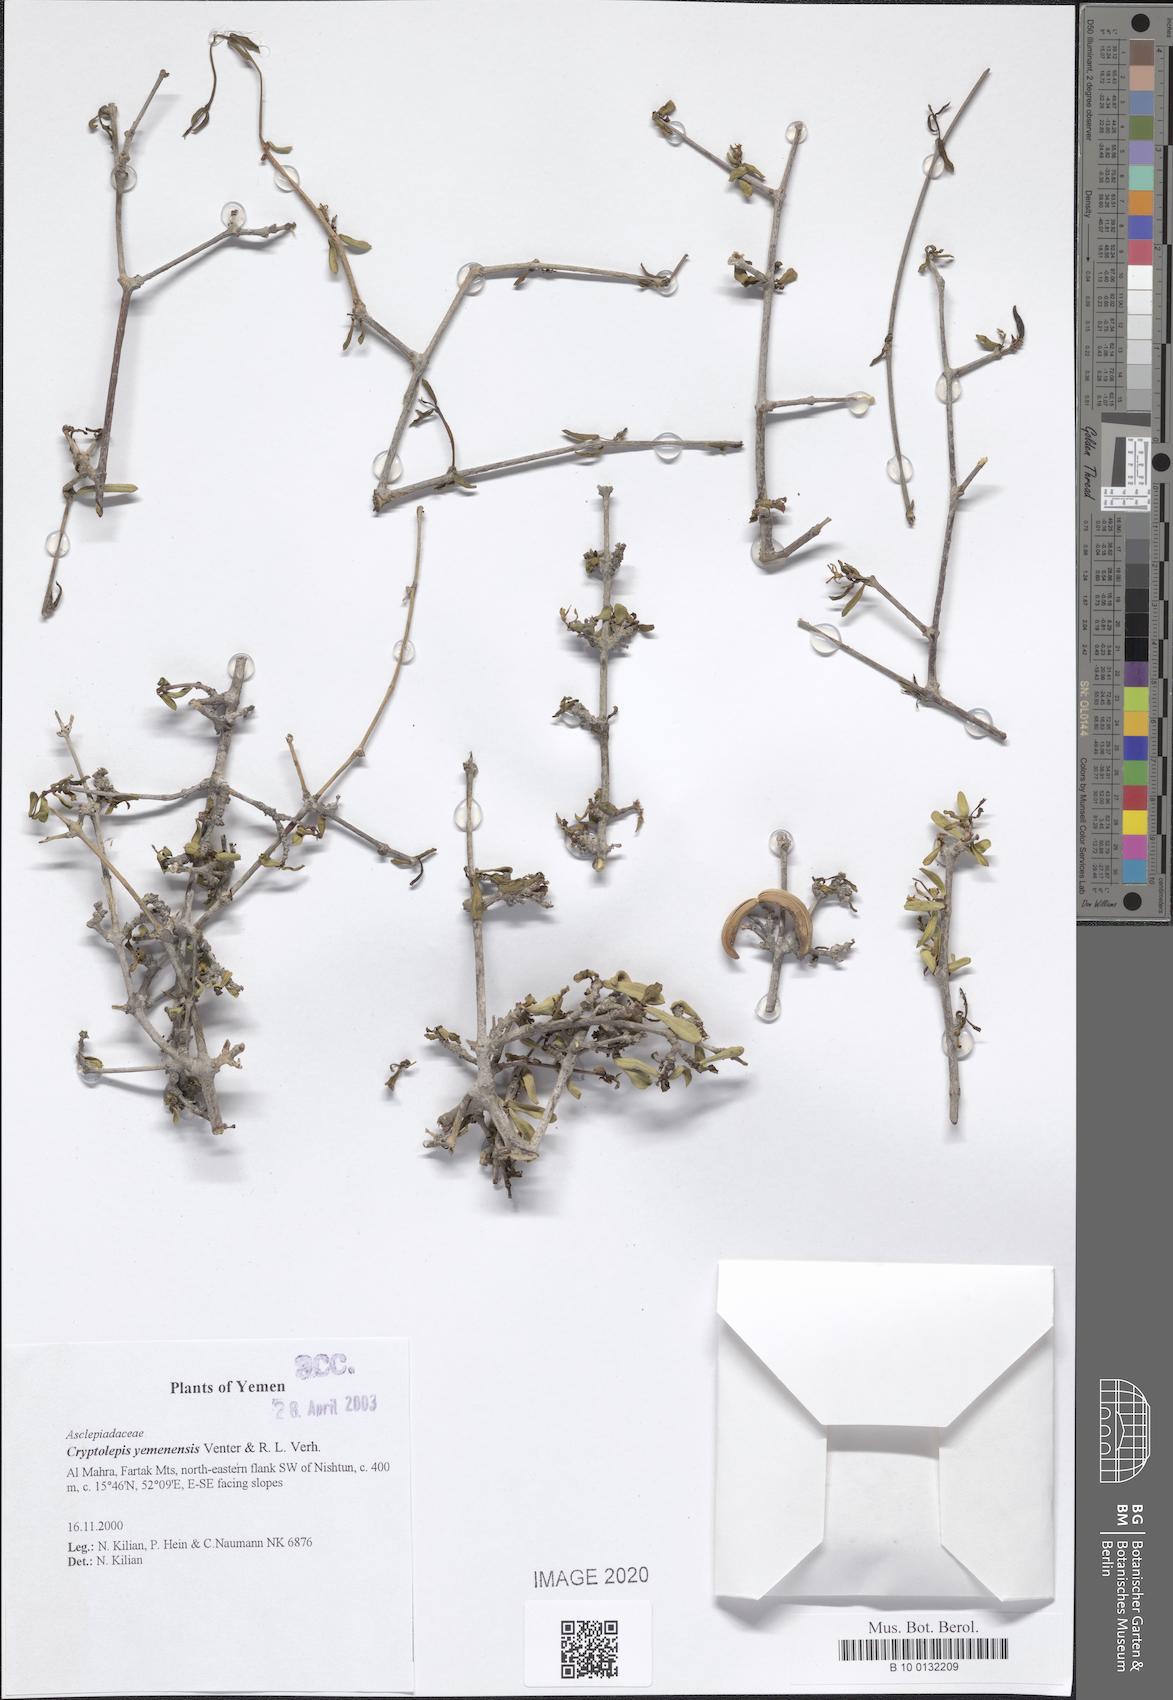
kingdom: Plantae
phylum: Tracheophyta
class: Magnoliopsida
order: Gentianales
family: Apocynaceae
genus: Cryptolepis
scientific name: Cryptolepis yemenensis
